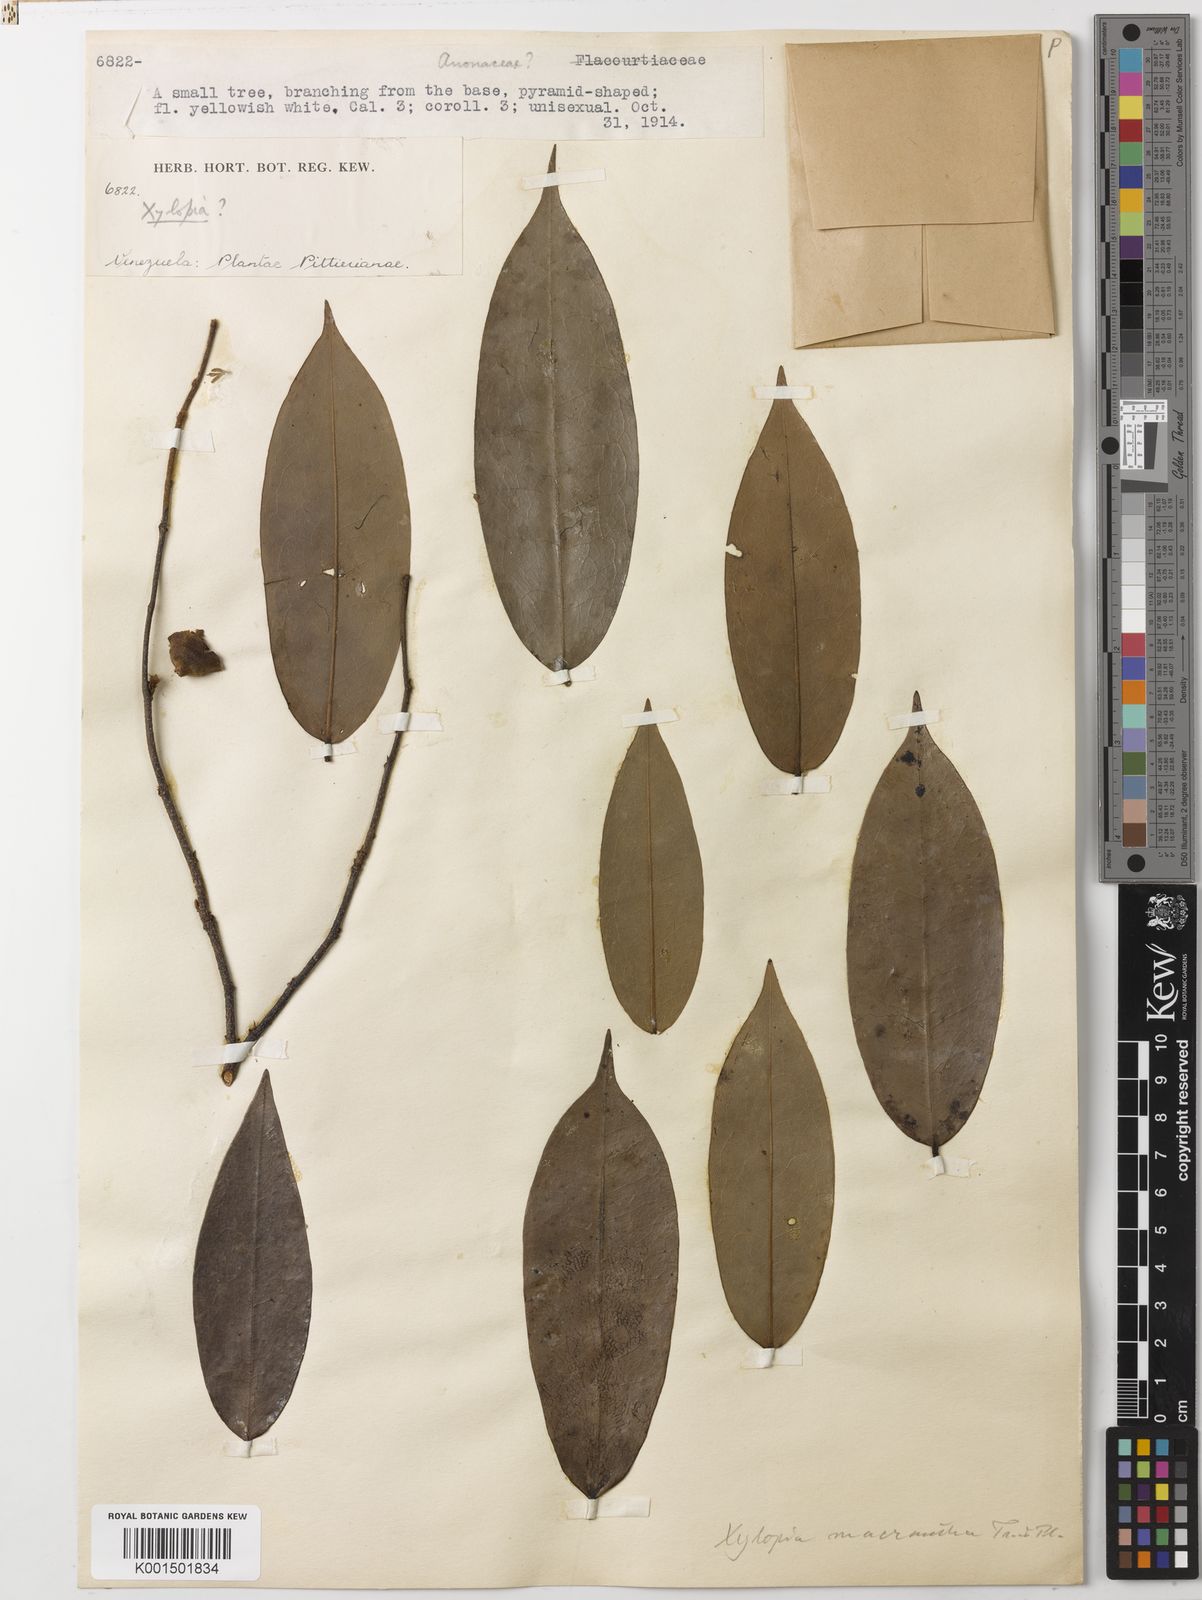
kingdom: Plantae
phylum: Tracheophyta
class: Magnoliopsida
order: Magnoliales
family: Annonaceae
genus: Xylopia
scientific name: Xylopia macrantha
